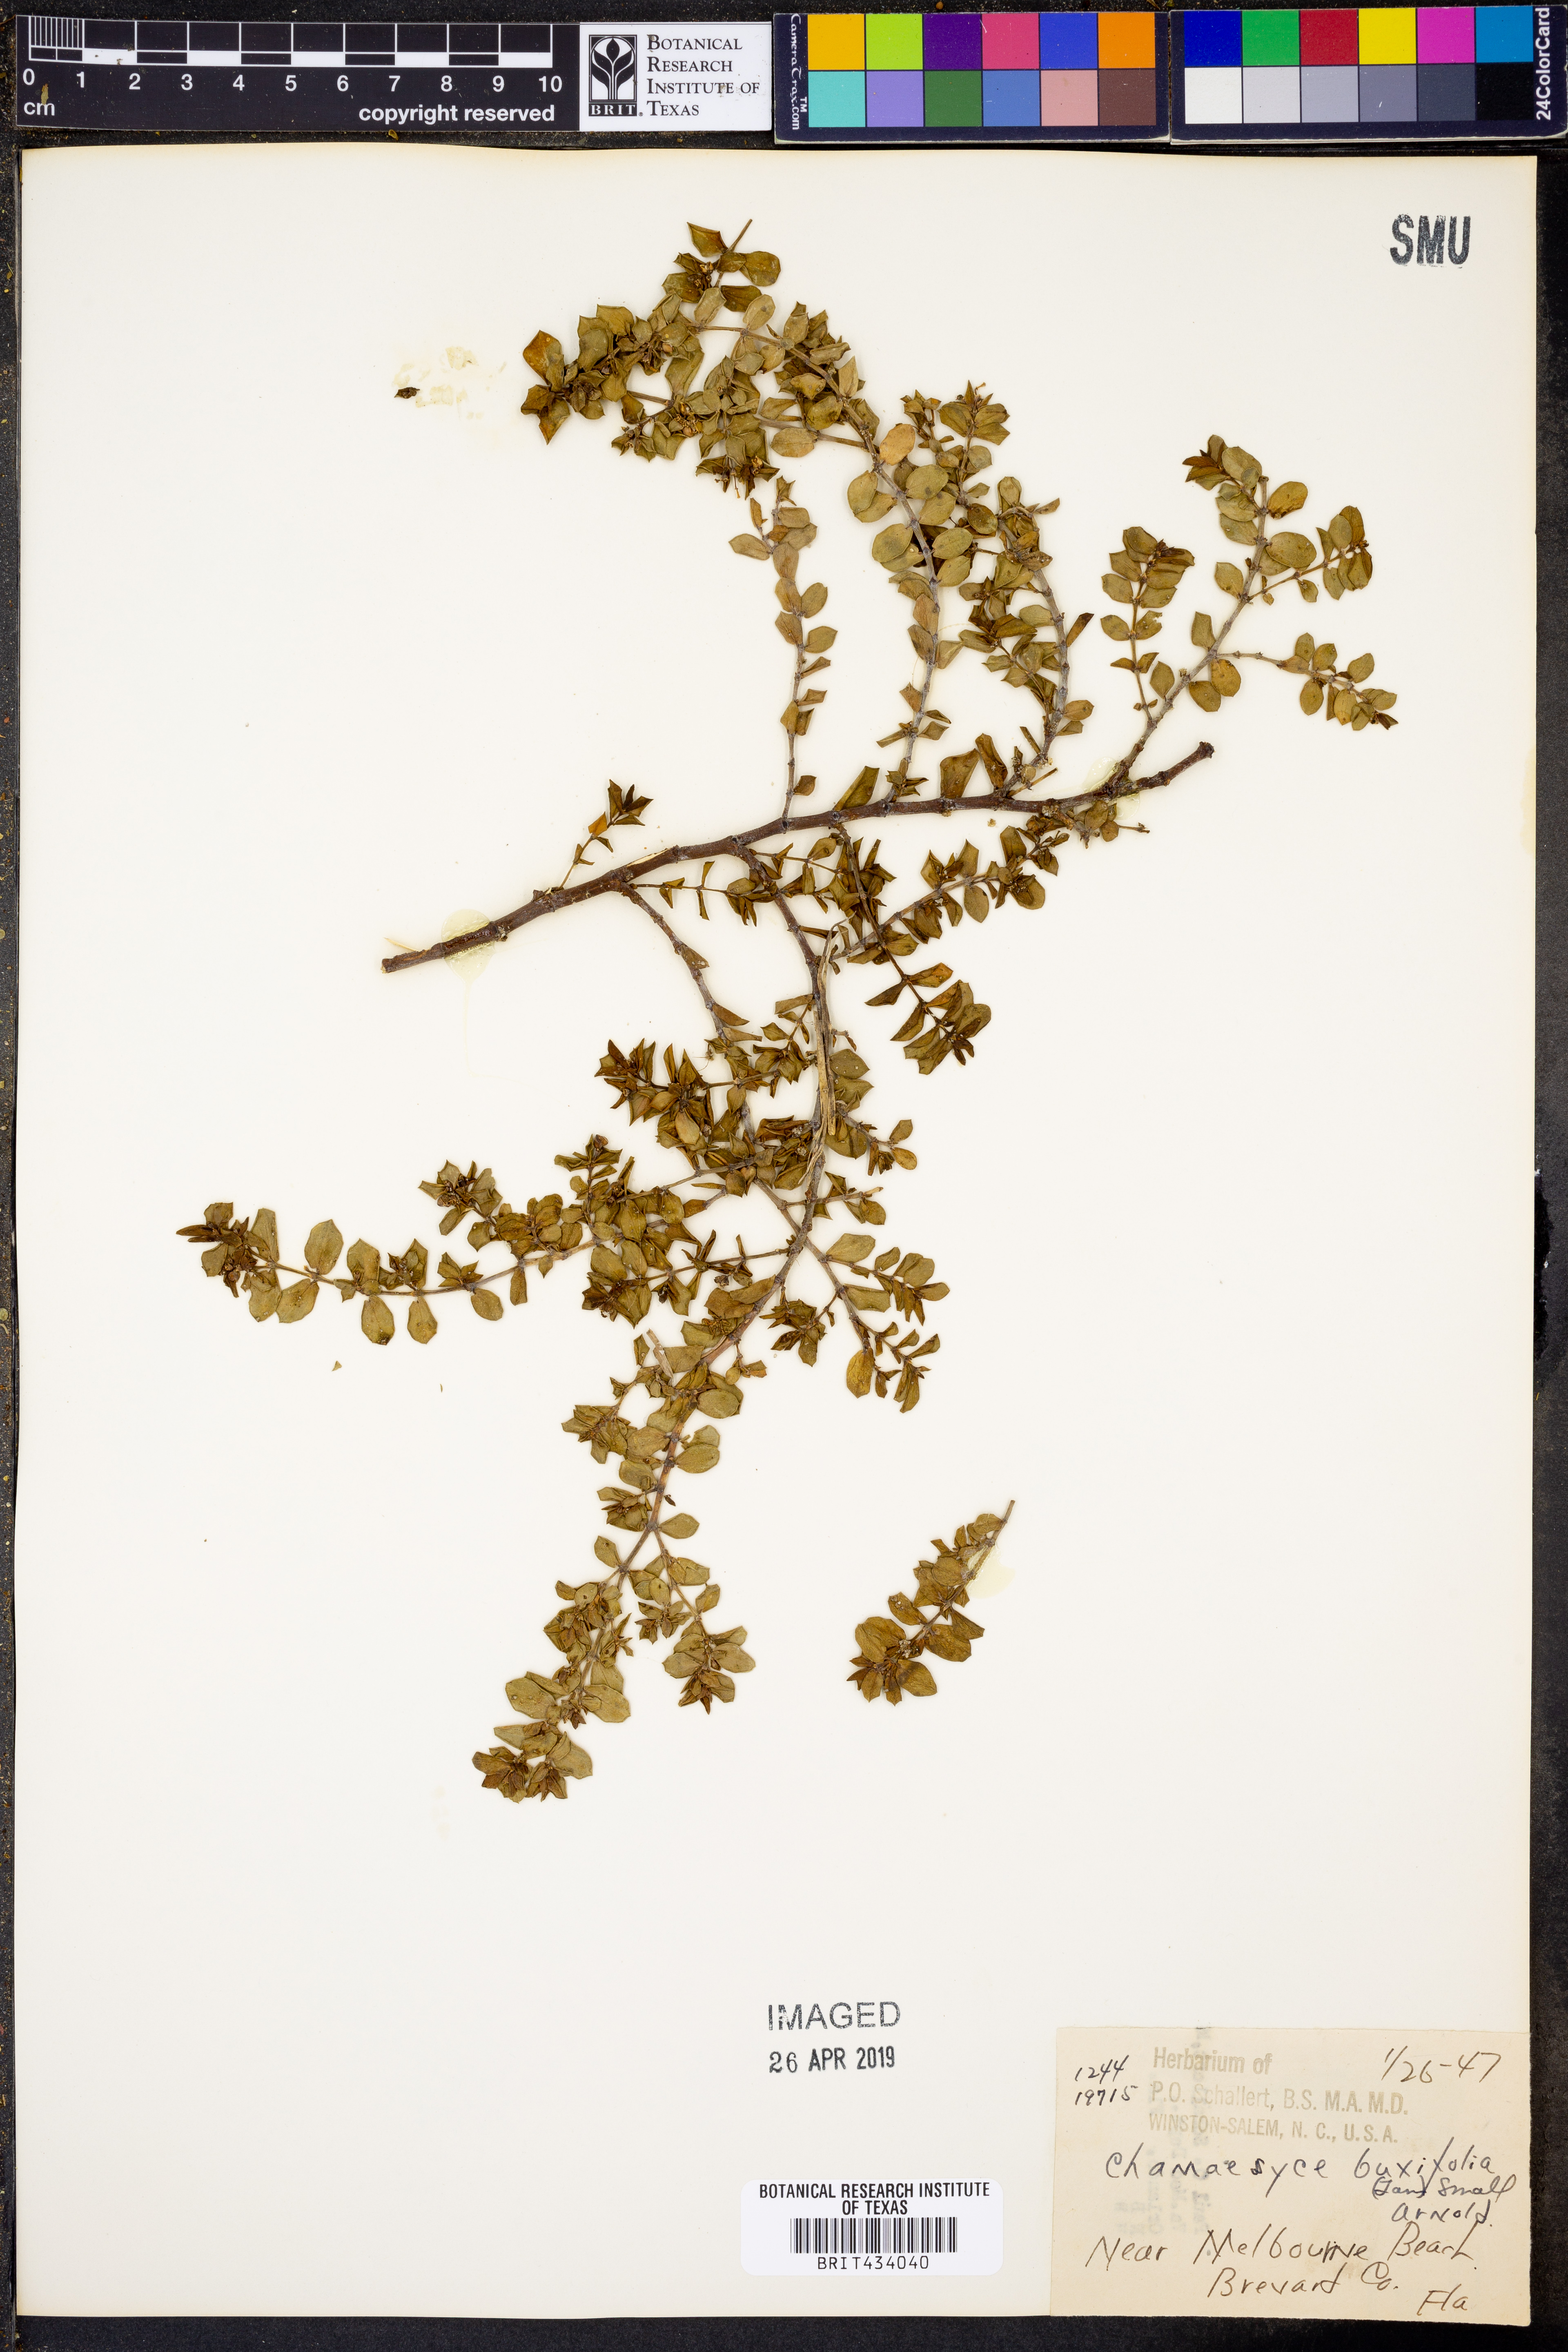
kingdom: Plantae
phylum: Tracheophyta
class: Magnoliopsida
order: Malpighiales
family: Euphorbiaceae
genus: Euphorbia
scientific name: Euphorbia mesembryanthemifolia
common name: Coastal beach sandmat
